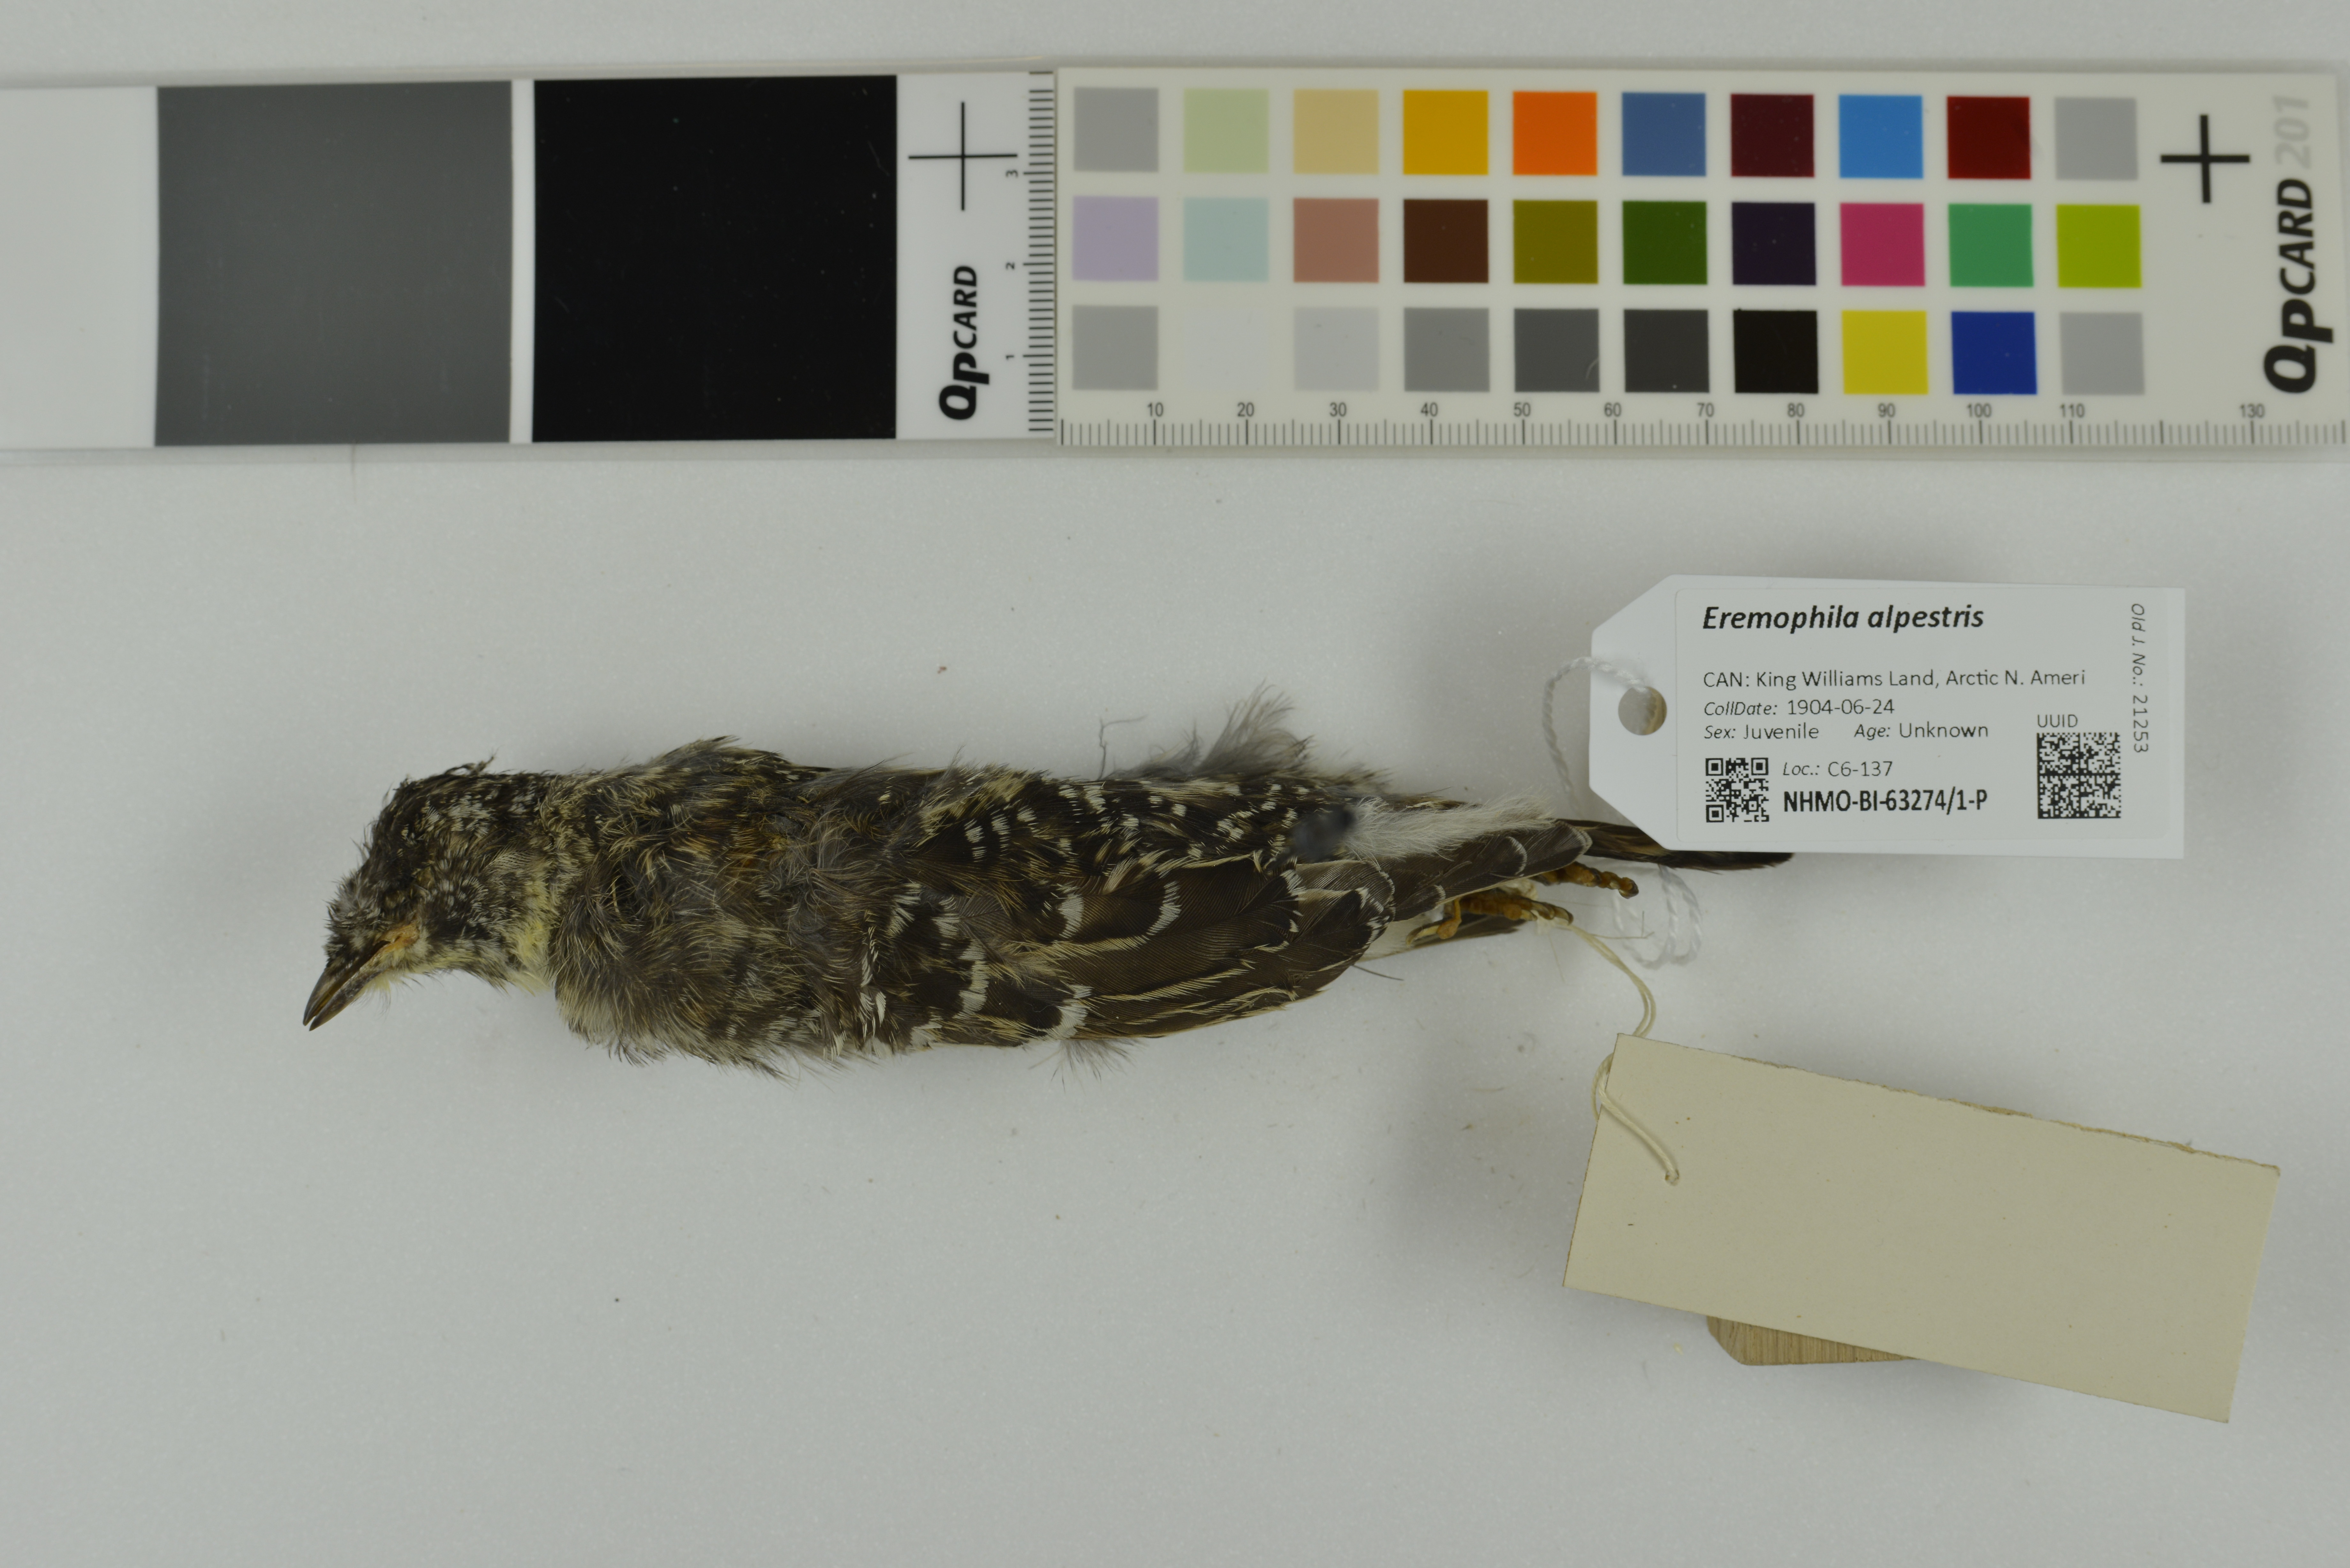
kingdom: Animalia
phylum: Chordata
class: Aves
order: Passeriformes
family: Alaudidae
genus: Eremophila
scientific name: Eremophila alpestris
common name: Horned lark
